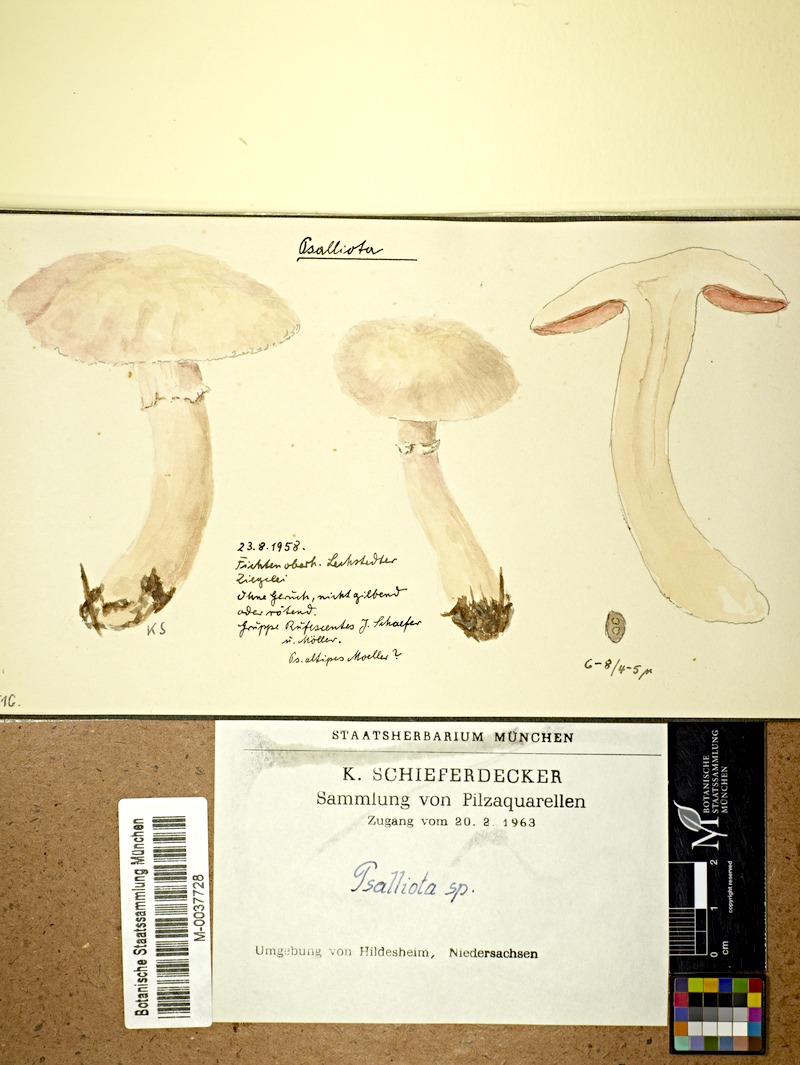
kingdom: Fungi
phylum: Basidiomycota
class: Agaricomycetes
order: Agaricales
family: Agaricaceae
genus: Agaricus
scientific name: Agaricus
